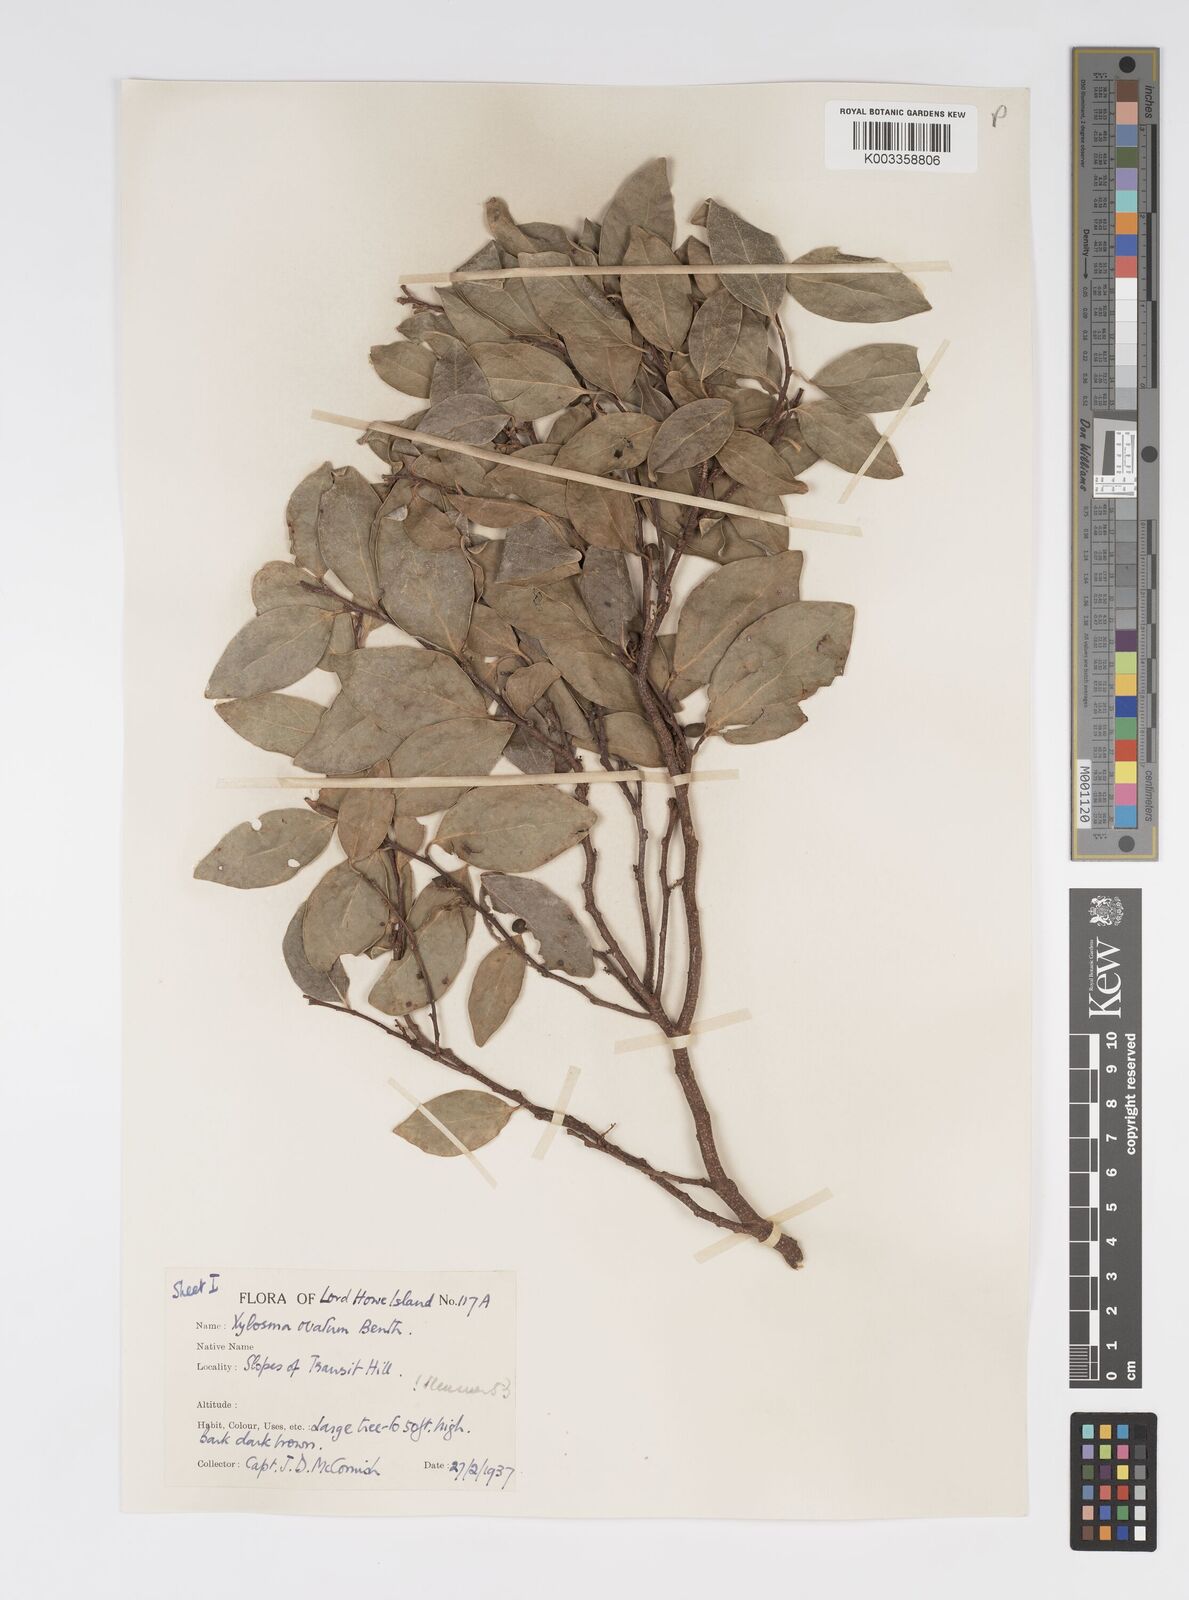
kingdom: Plantae
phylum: Tracheophyta
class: Magnoliopsida
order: Malpighiales
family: Salicaceae
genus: Xylosma
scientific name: Xylosma maidenii
